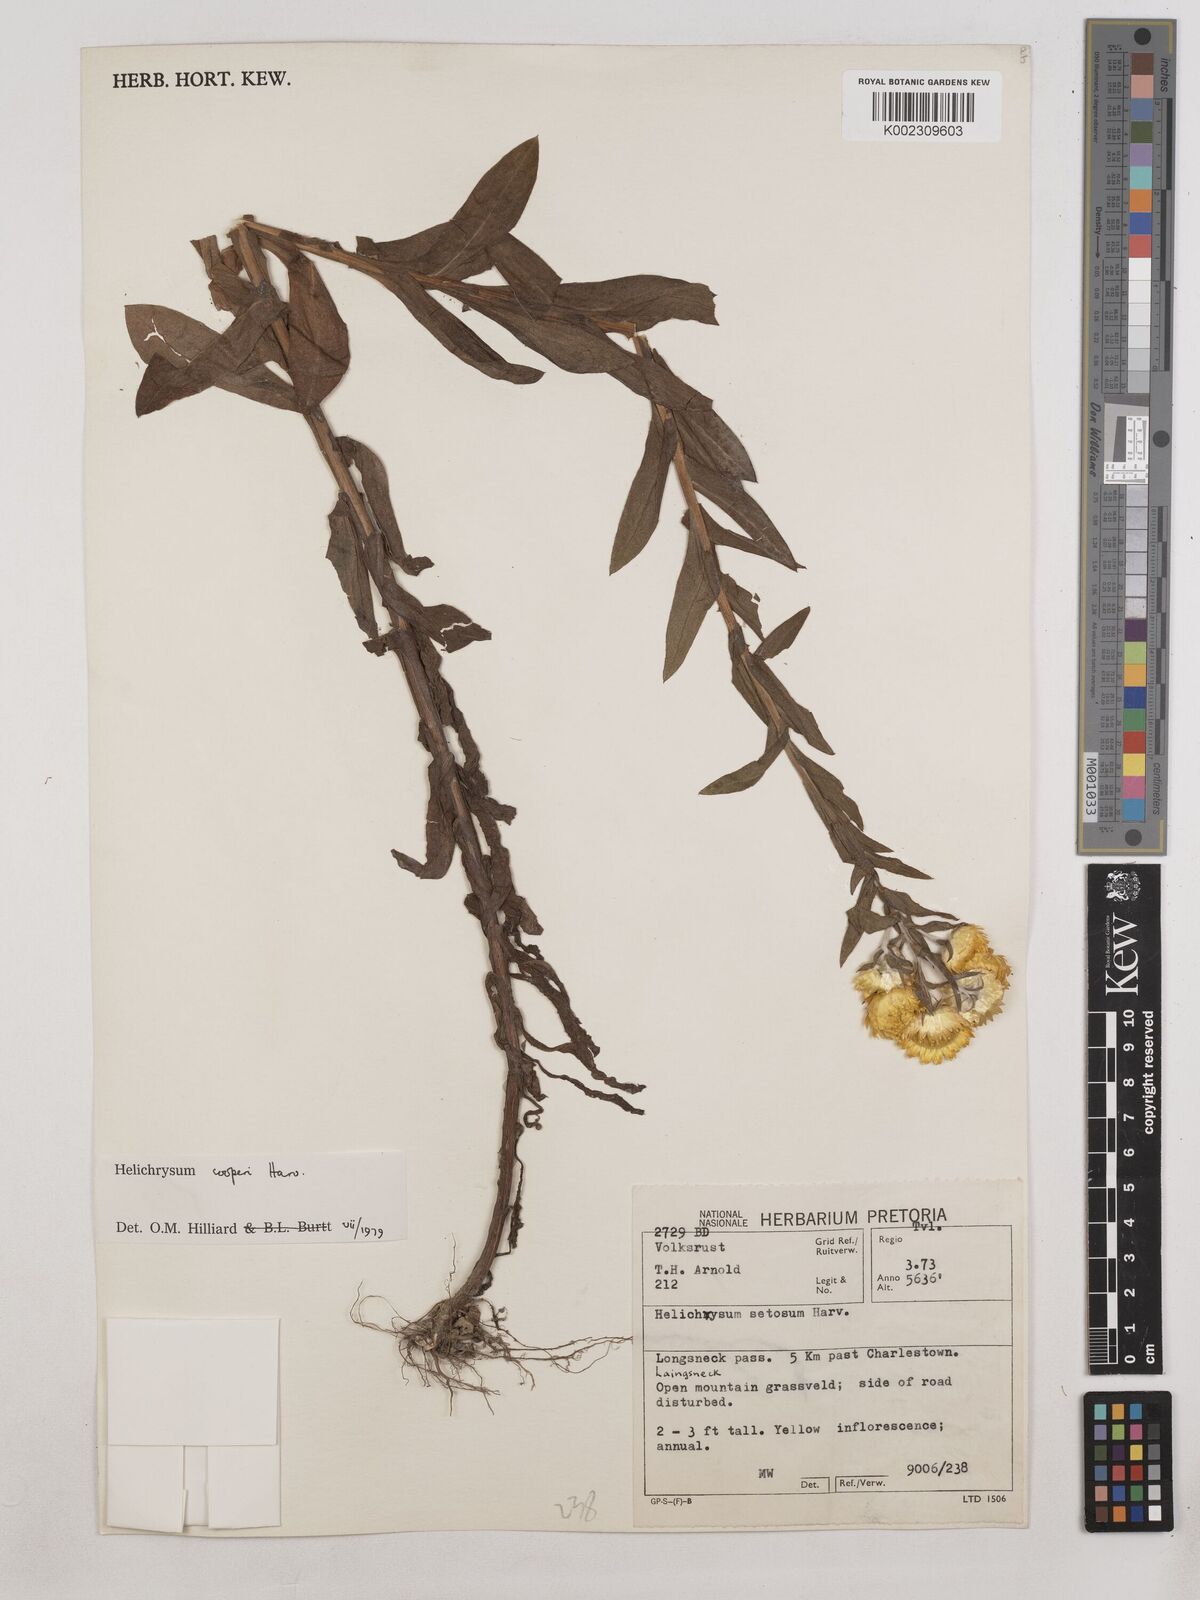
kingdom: Plantae
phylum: Tracheophyta
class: Magnoliopsida
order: Asterales
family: Asteraceae
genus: Helichrysum
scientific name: Helichrysum cooperi
